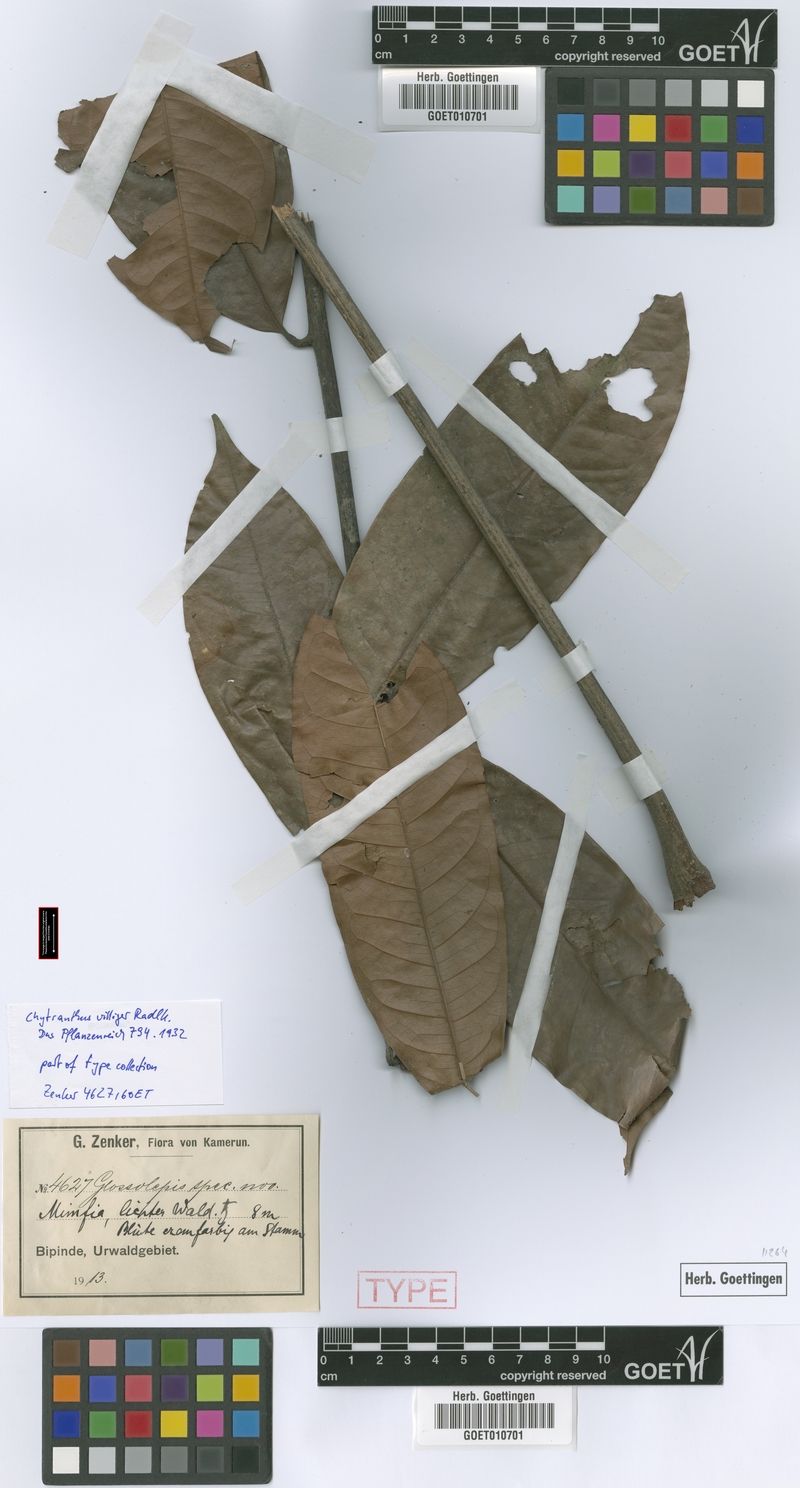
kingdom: Plantae
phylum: Tracheophyta
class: Magnoliopsida
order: Sapindales
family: Sapindaceae
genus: Chytranthus
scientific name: Chytranthus carneus
